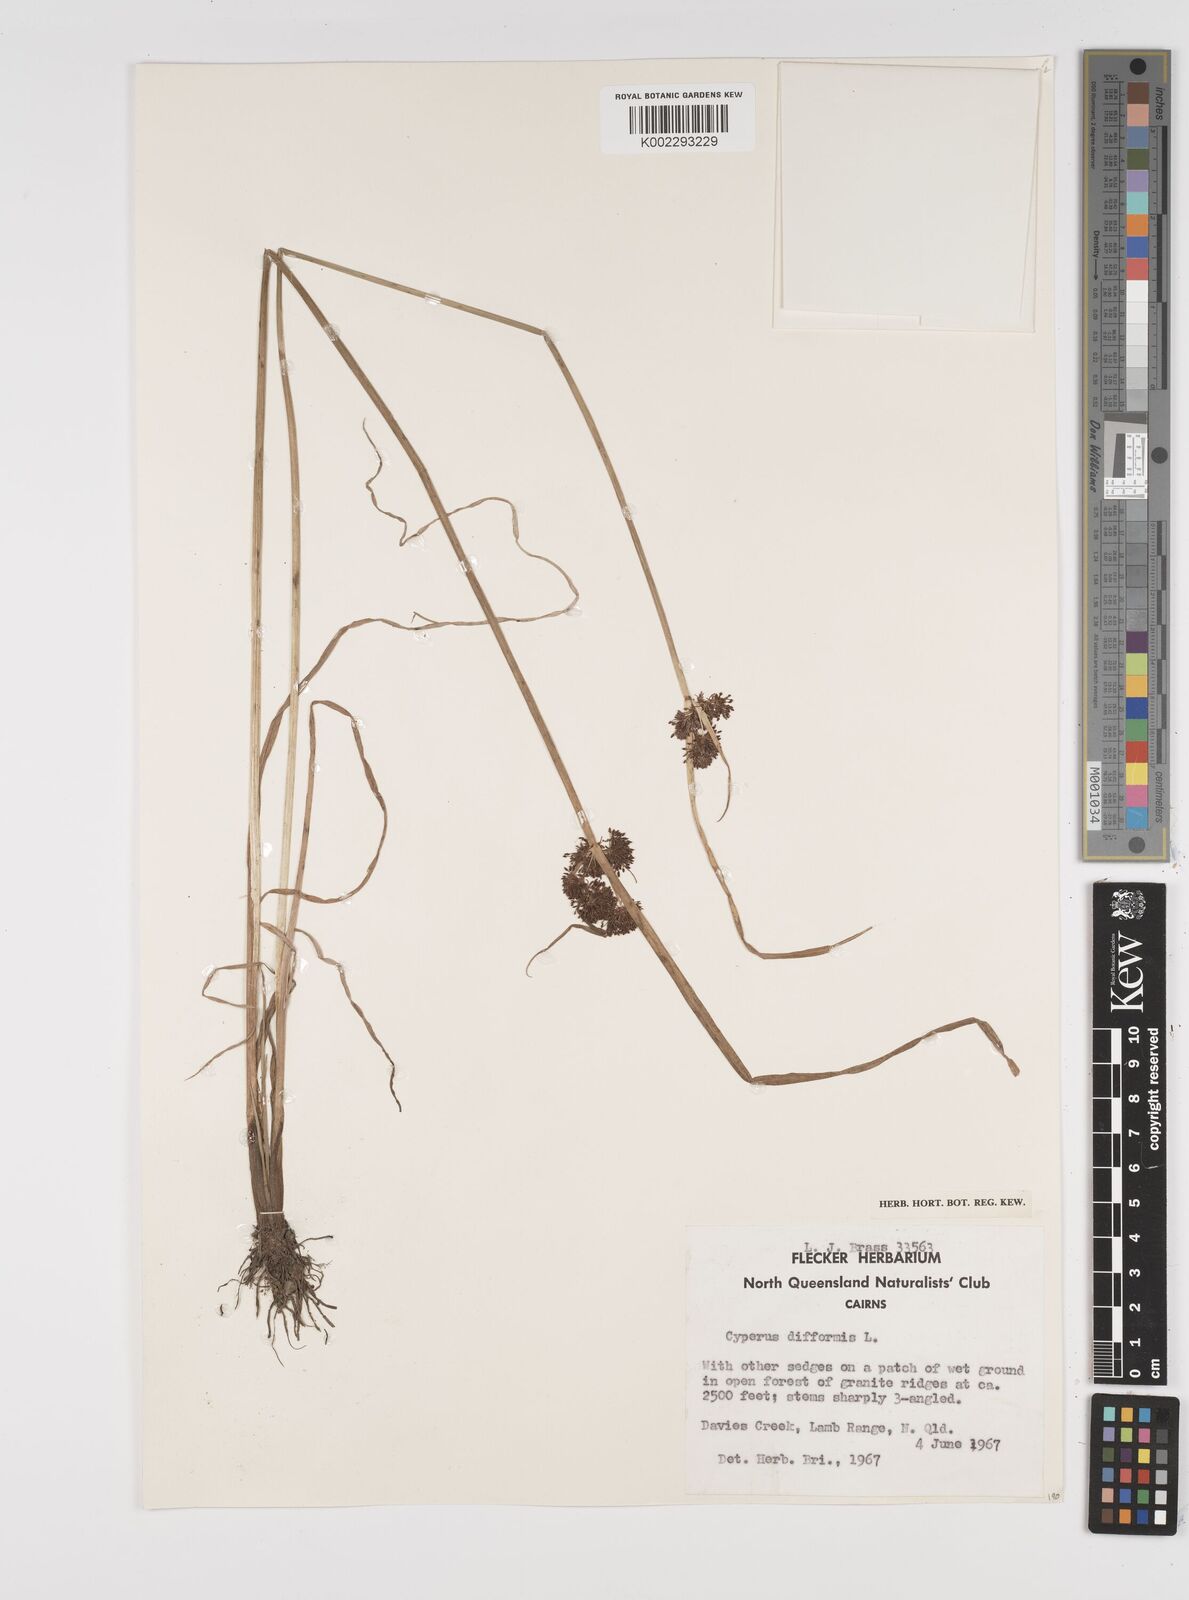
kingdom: Plantae
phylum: Tracheophyta
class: Liliopsida
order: Poales
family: Cyperaceae
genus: Cyperus
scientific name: Cyperus difformis
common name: Variable flatsedge
